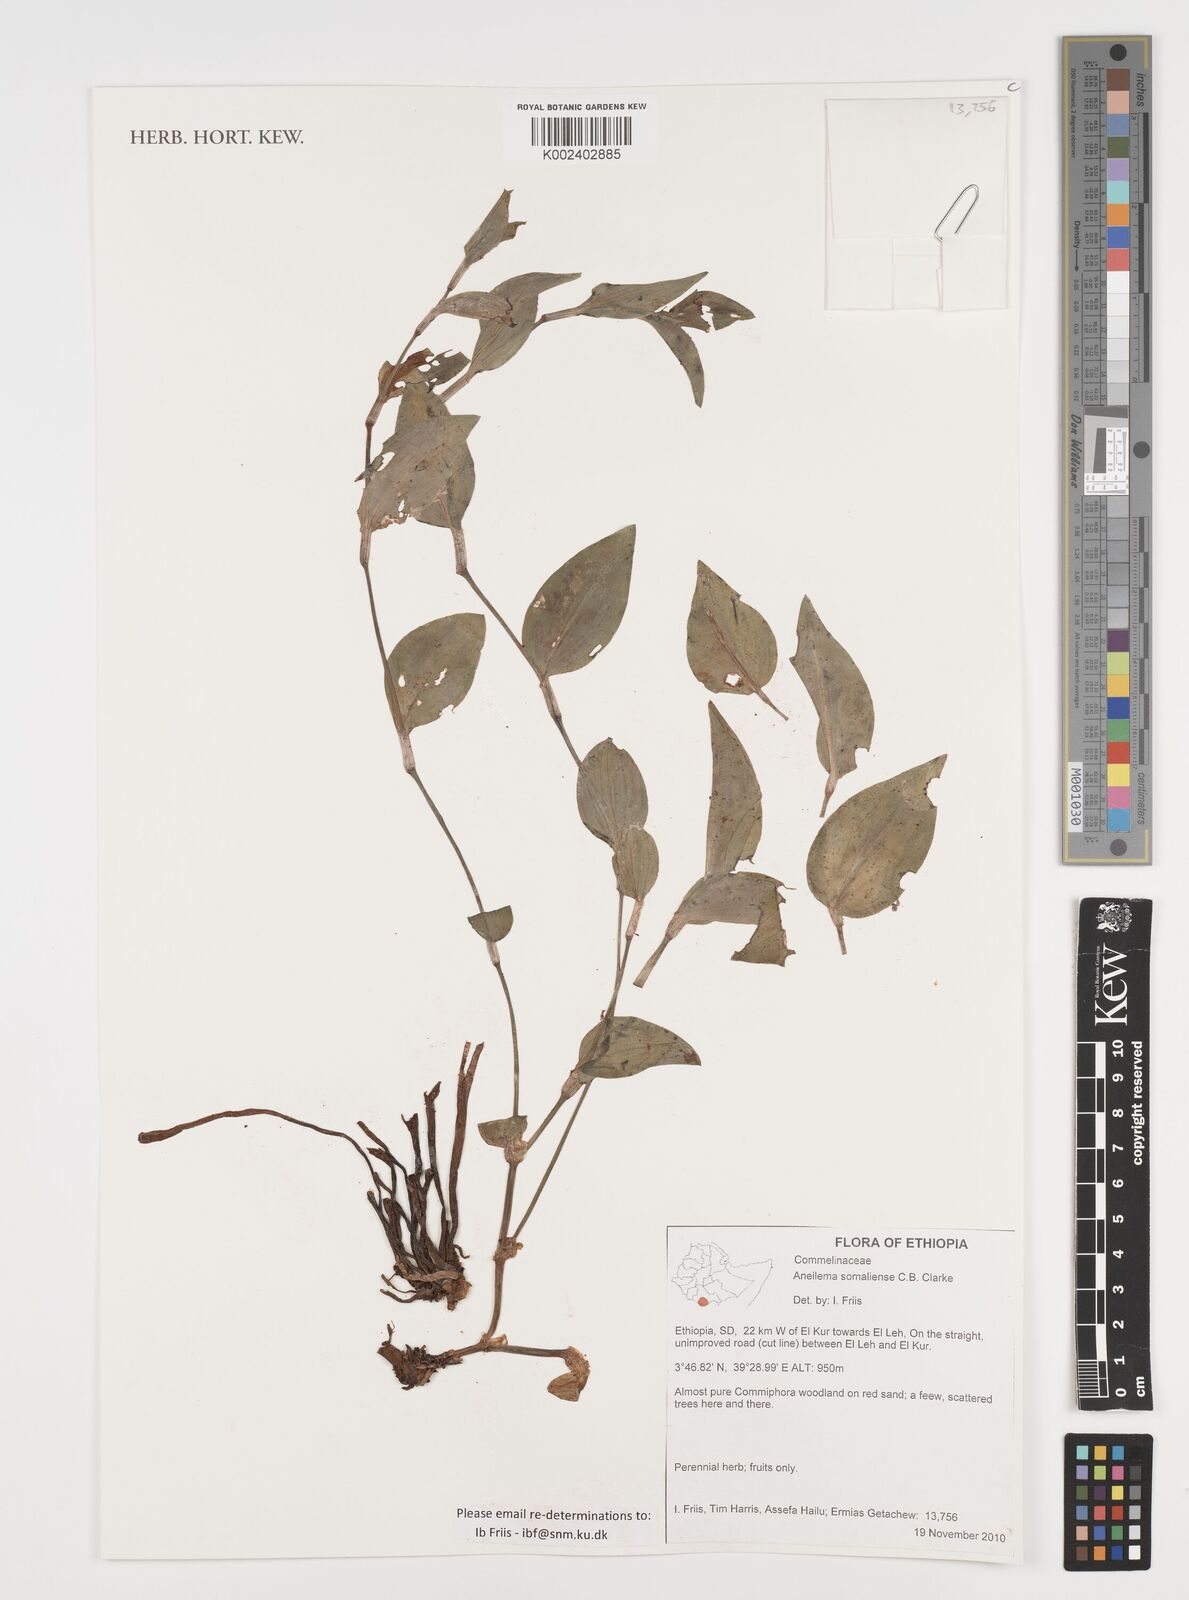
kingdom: Plantae
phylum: Tracheophyta
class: Liliopsida
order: Commelinales
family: Commelinaceae
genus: Aneilema
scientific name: Aneilema somaliense
